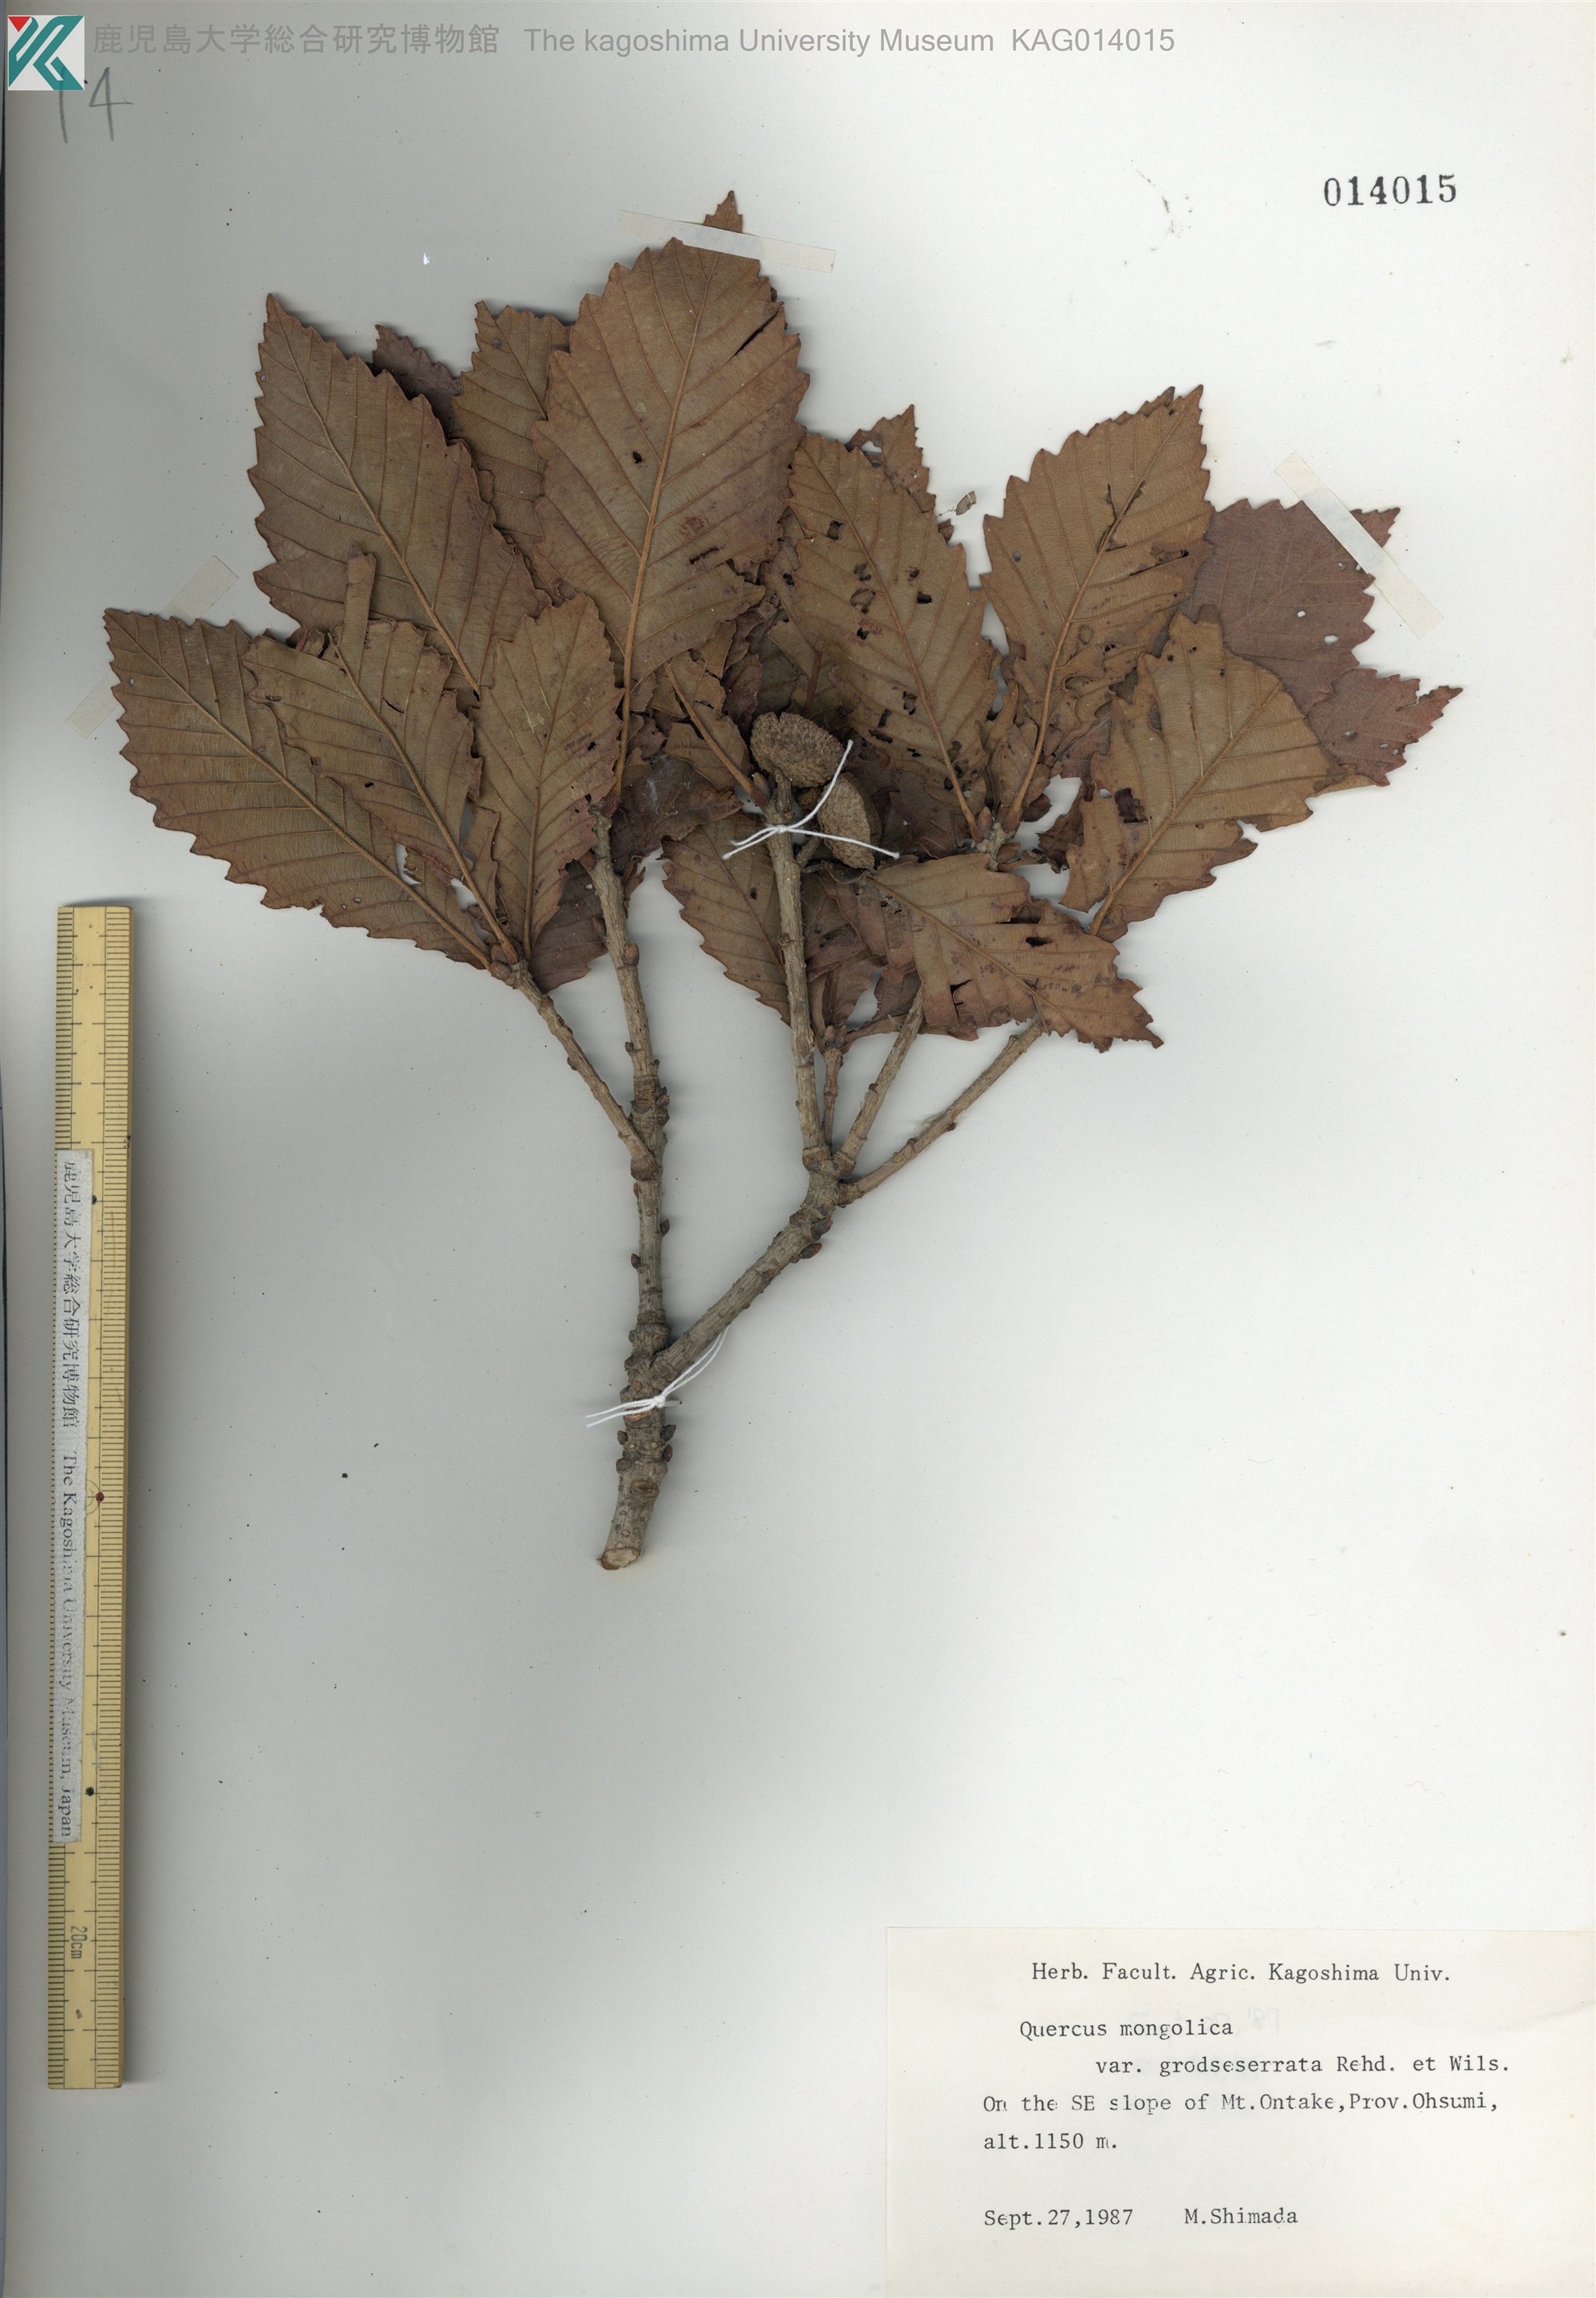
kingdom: Plantae
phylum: Tracheophyta
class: Magnoliopsida
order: Fagales
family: Fagaceae
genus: Quercus
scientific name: Quercus crispula
